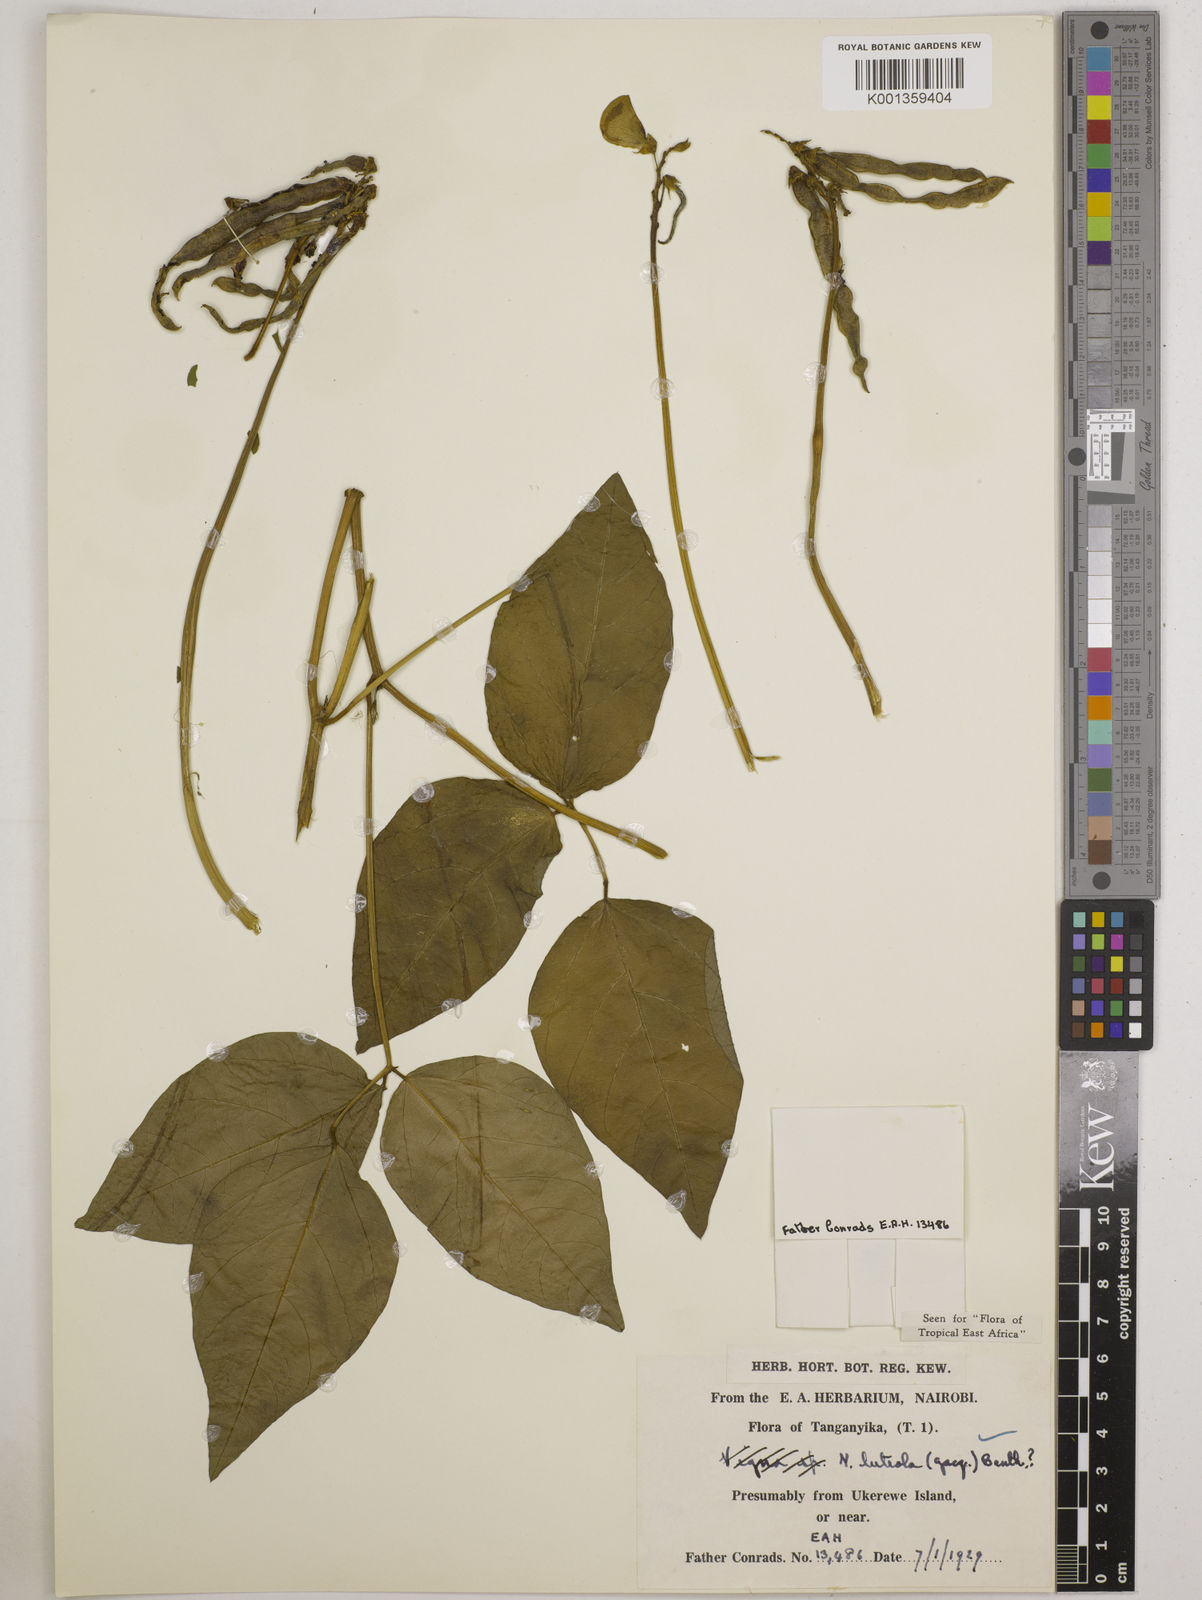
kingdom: Plantae
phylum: Tracheophyta
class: Magnoliopsida
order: Fabales
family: Fabaceae
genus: Vigna
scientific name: Vigna luteola
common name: Hairypod cowpea
